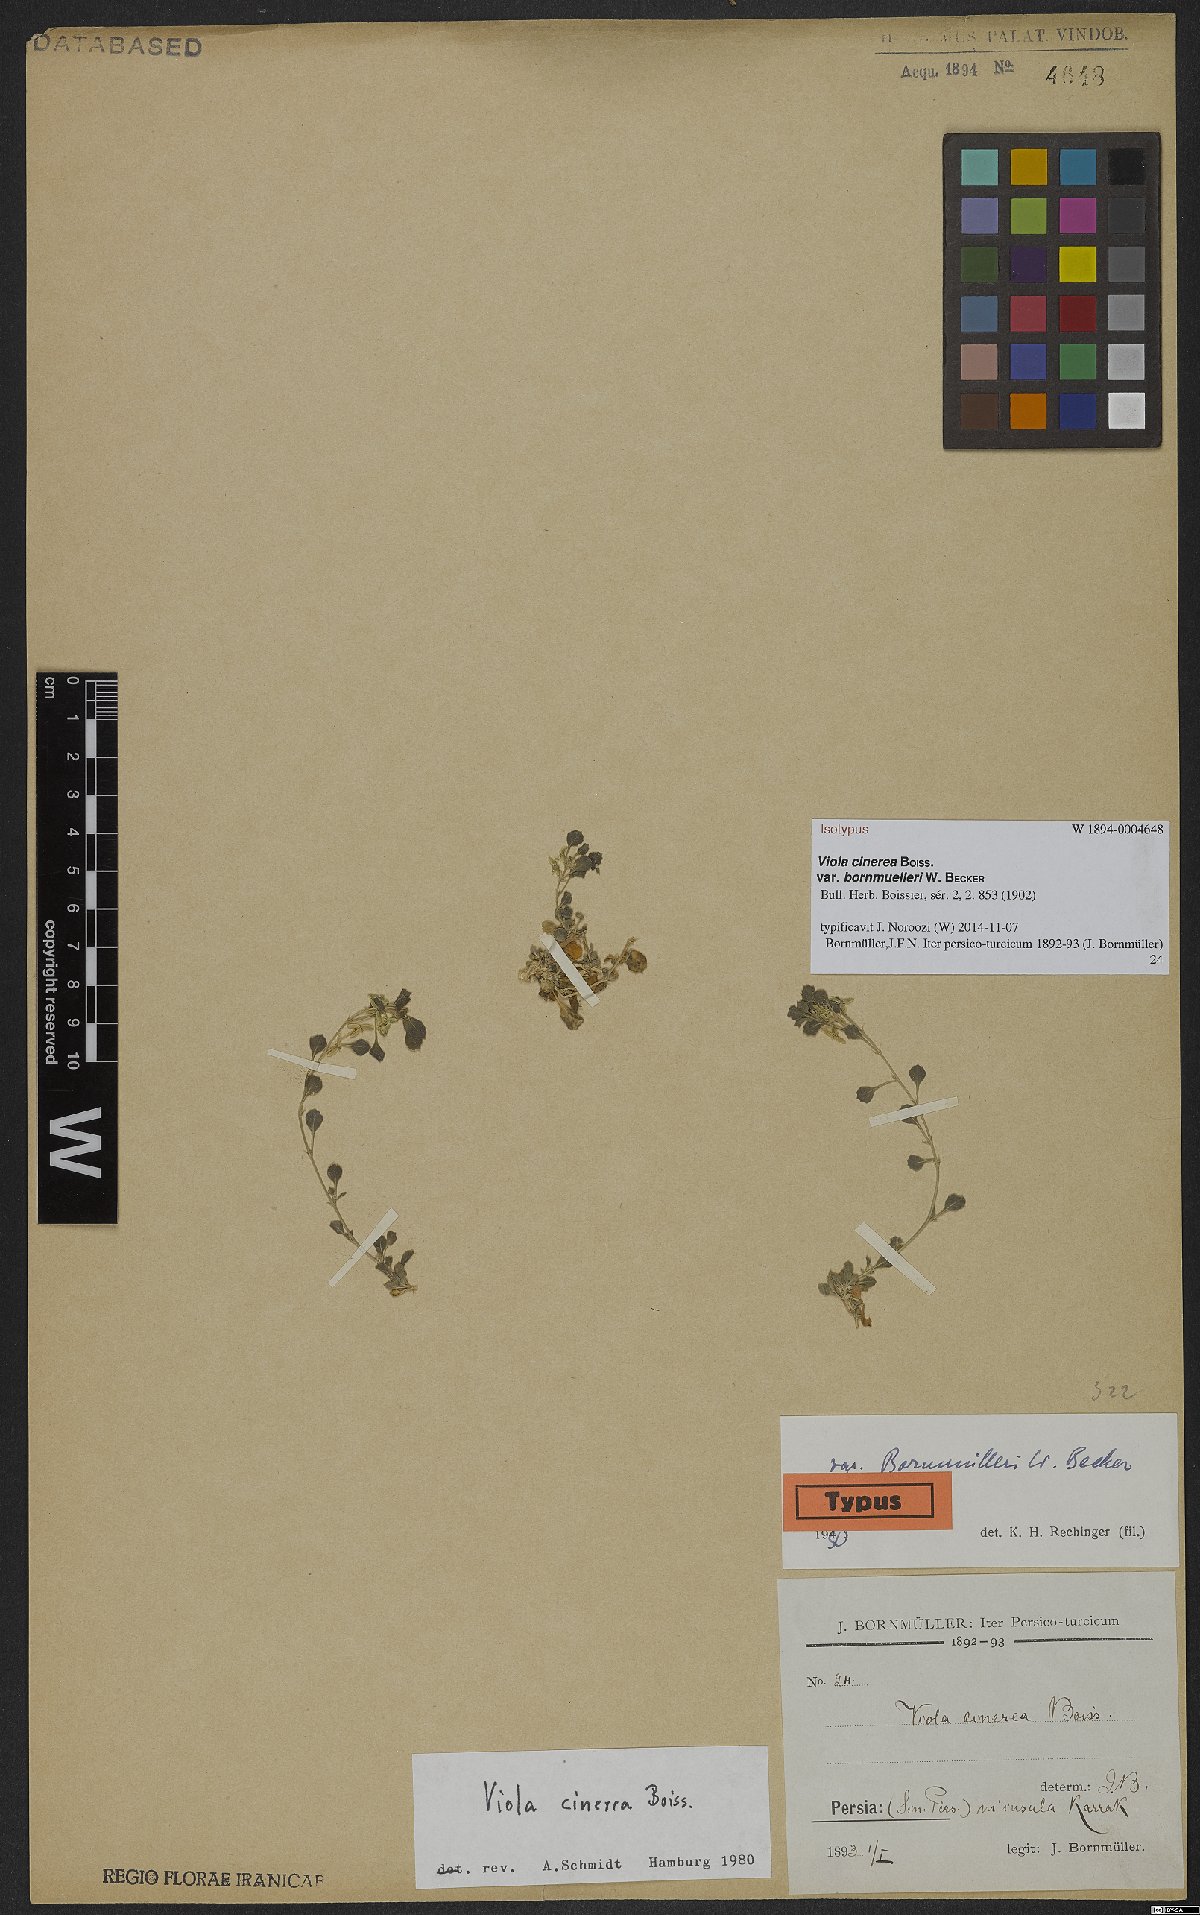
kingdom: Plantae
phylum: Tracheophyta
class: Magnoliopsida
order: Malpighiales
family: Violaceae
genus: Viola
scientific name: Viola cinerea
